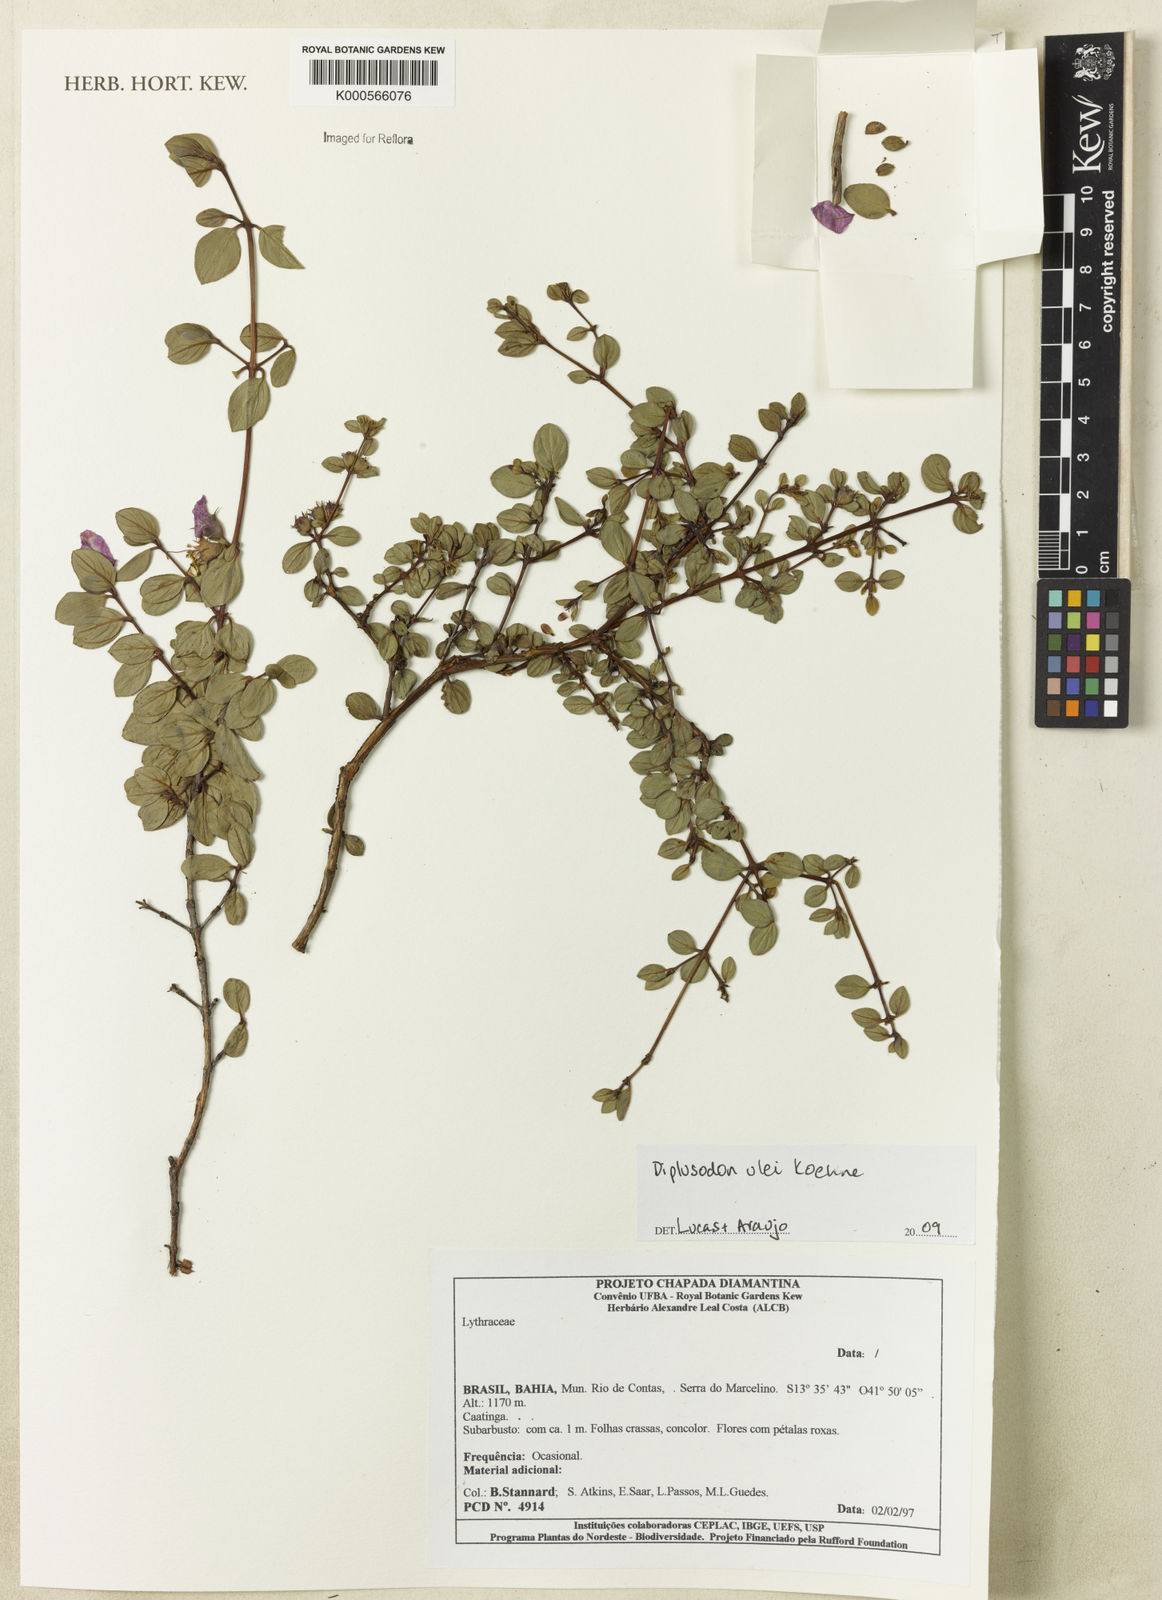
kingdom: Plantae
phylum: Tracheophyta
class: Magnoliopsida
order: Myrtales
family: Lythraceae
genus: Diplusodon
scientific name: Diplusodon ulei
